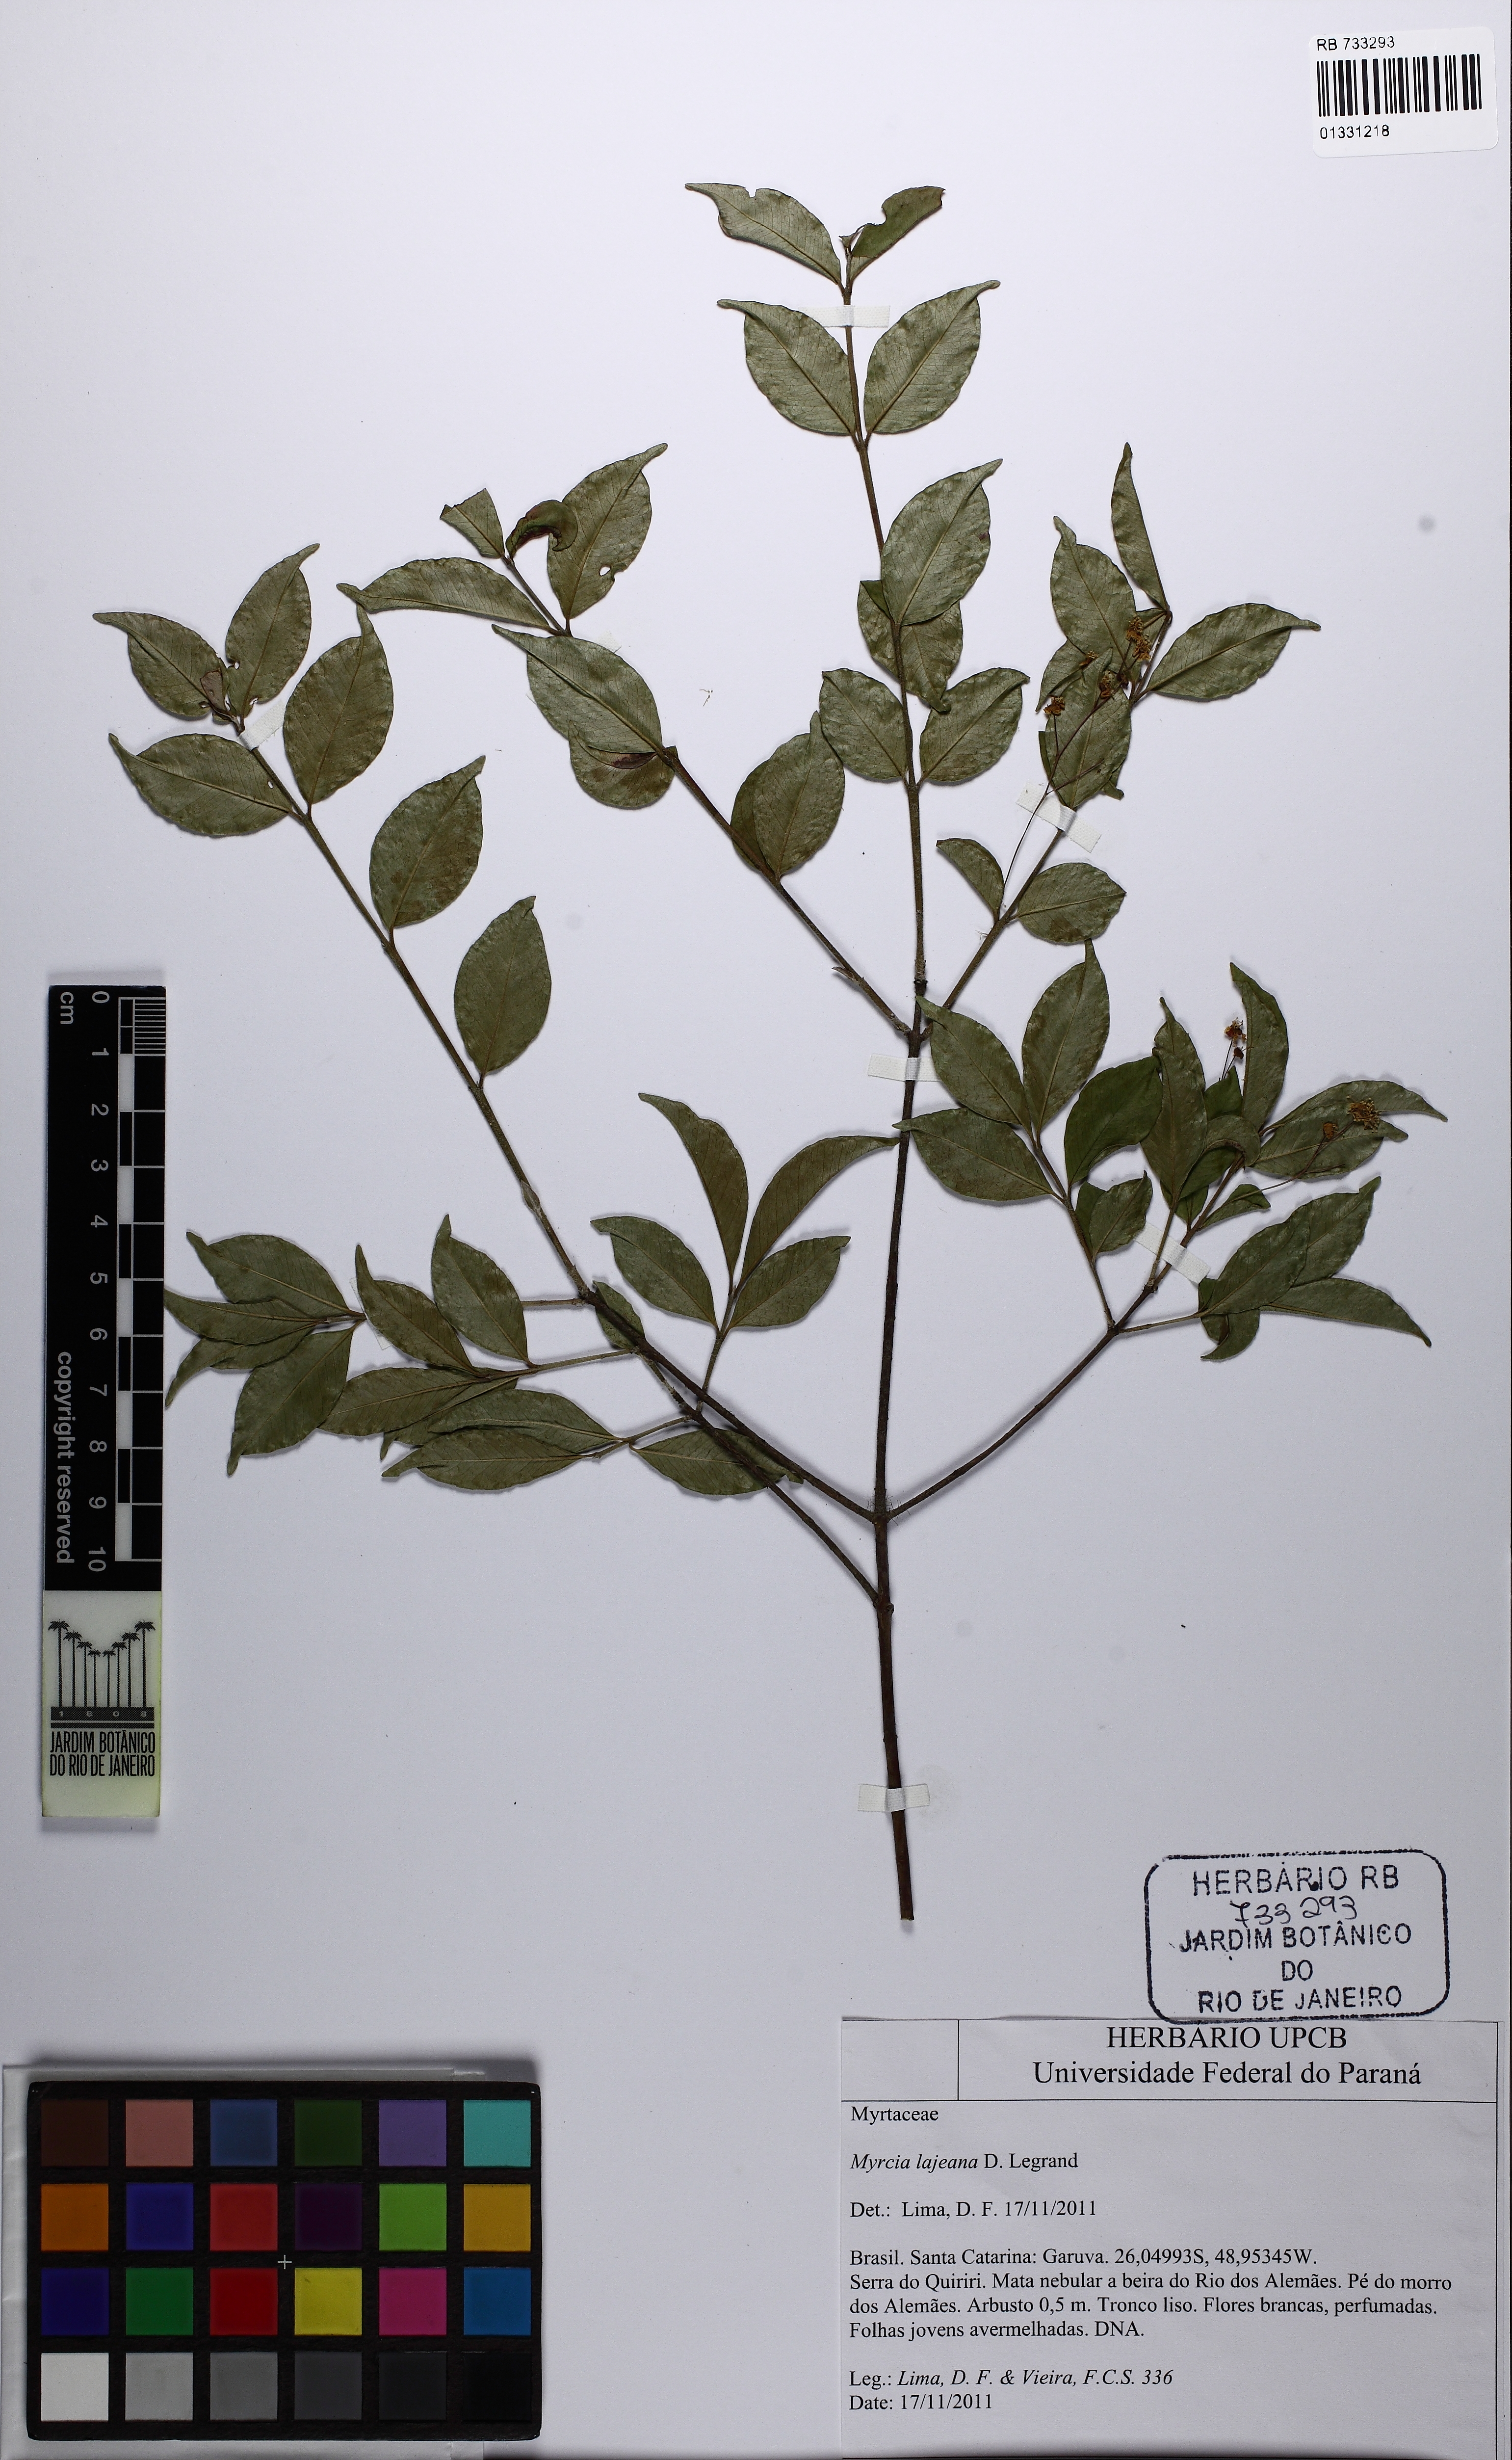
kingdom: Plantae
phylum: Tracheophyta
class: Magnoliopsida
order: Myrtales
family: Myrtaceae
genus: Myrcia
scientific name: Myrcia lajeana
